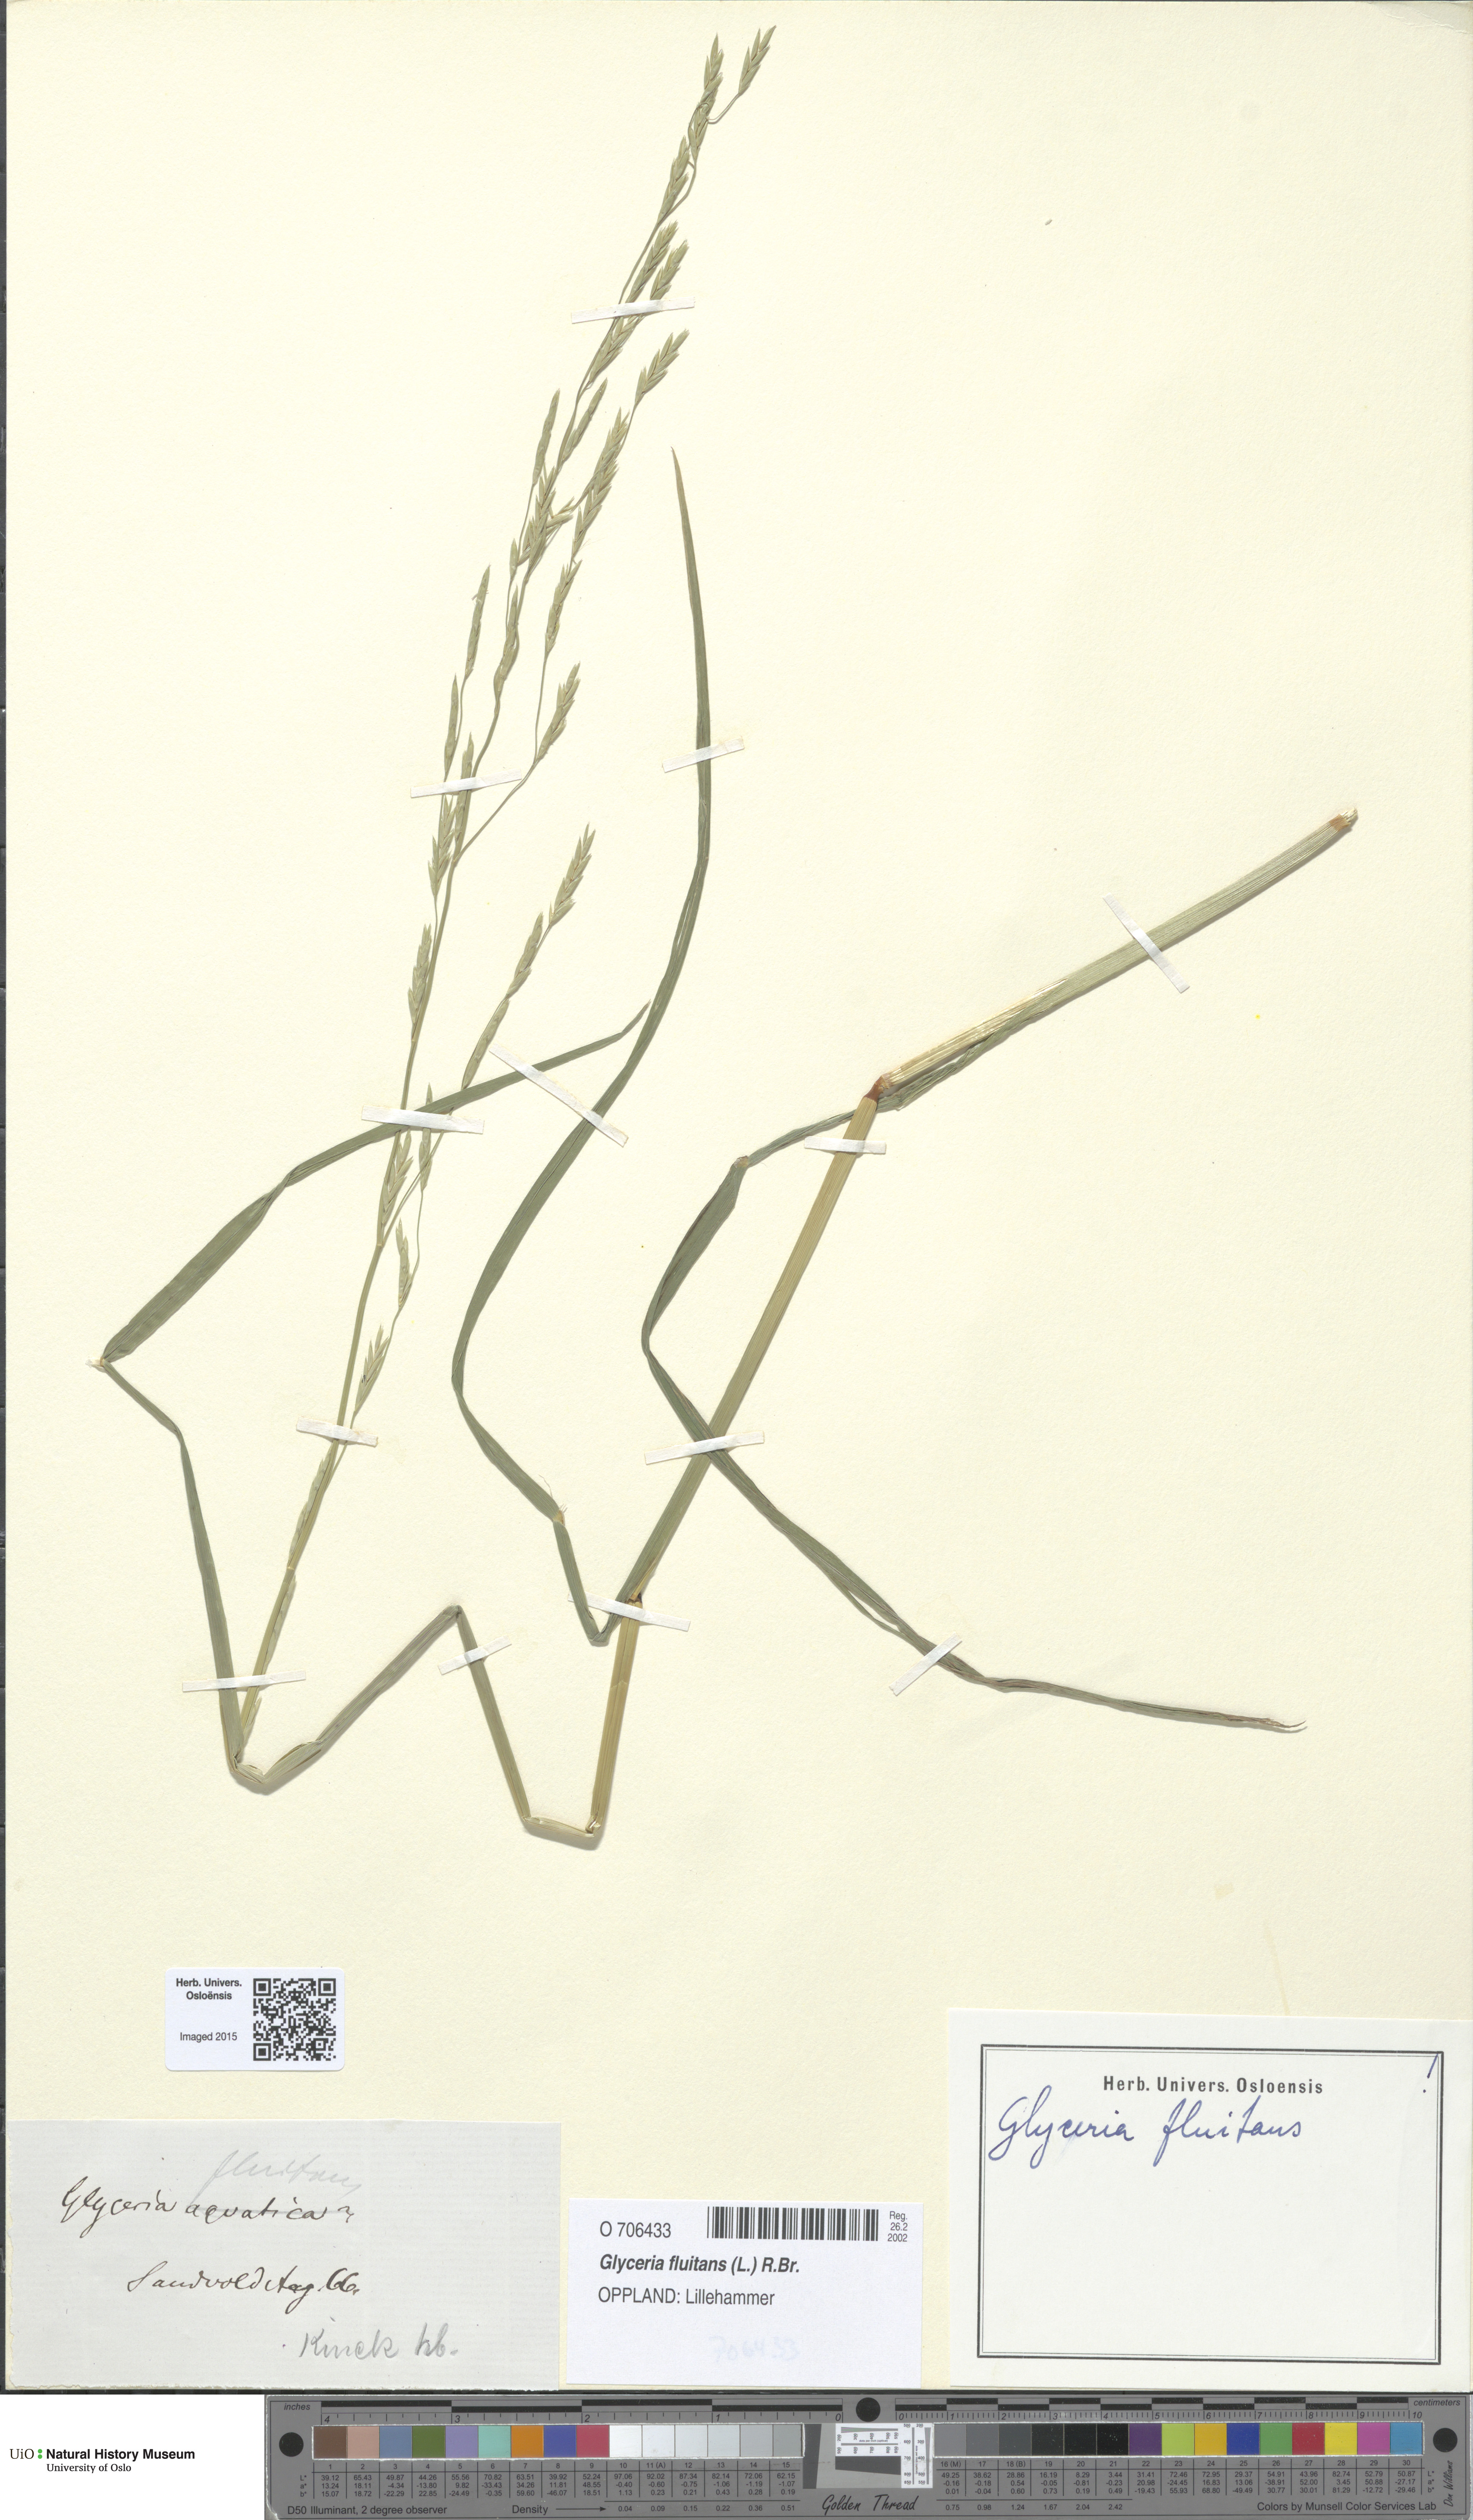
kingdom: Plantae
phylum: Tracheophyta
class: Liliopsida
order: Poales
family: Poaceae
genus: Glyceria
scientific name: Glyceria fluitans
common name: Floating sweet-grass
